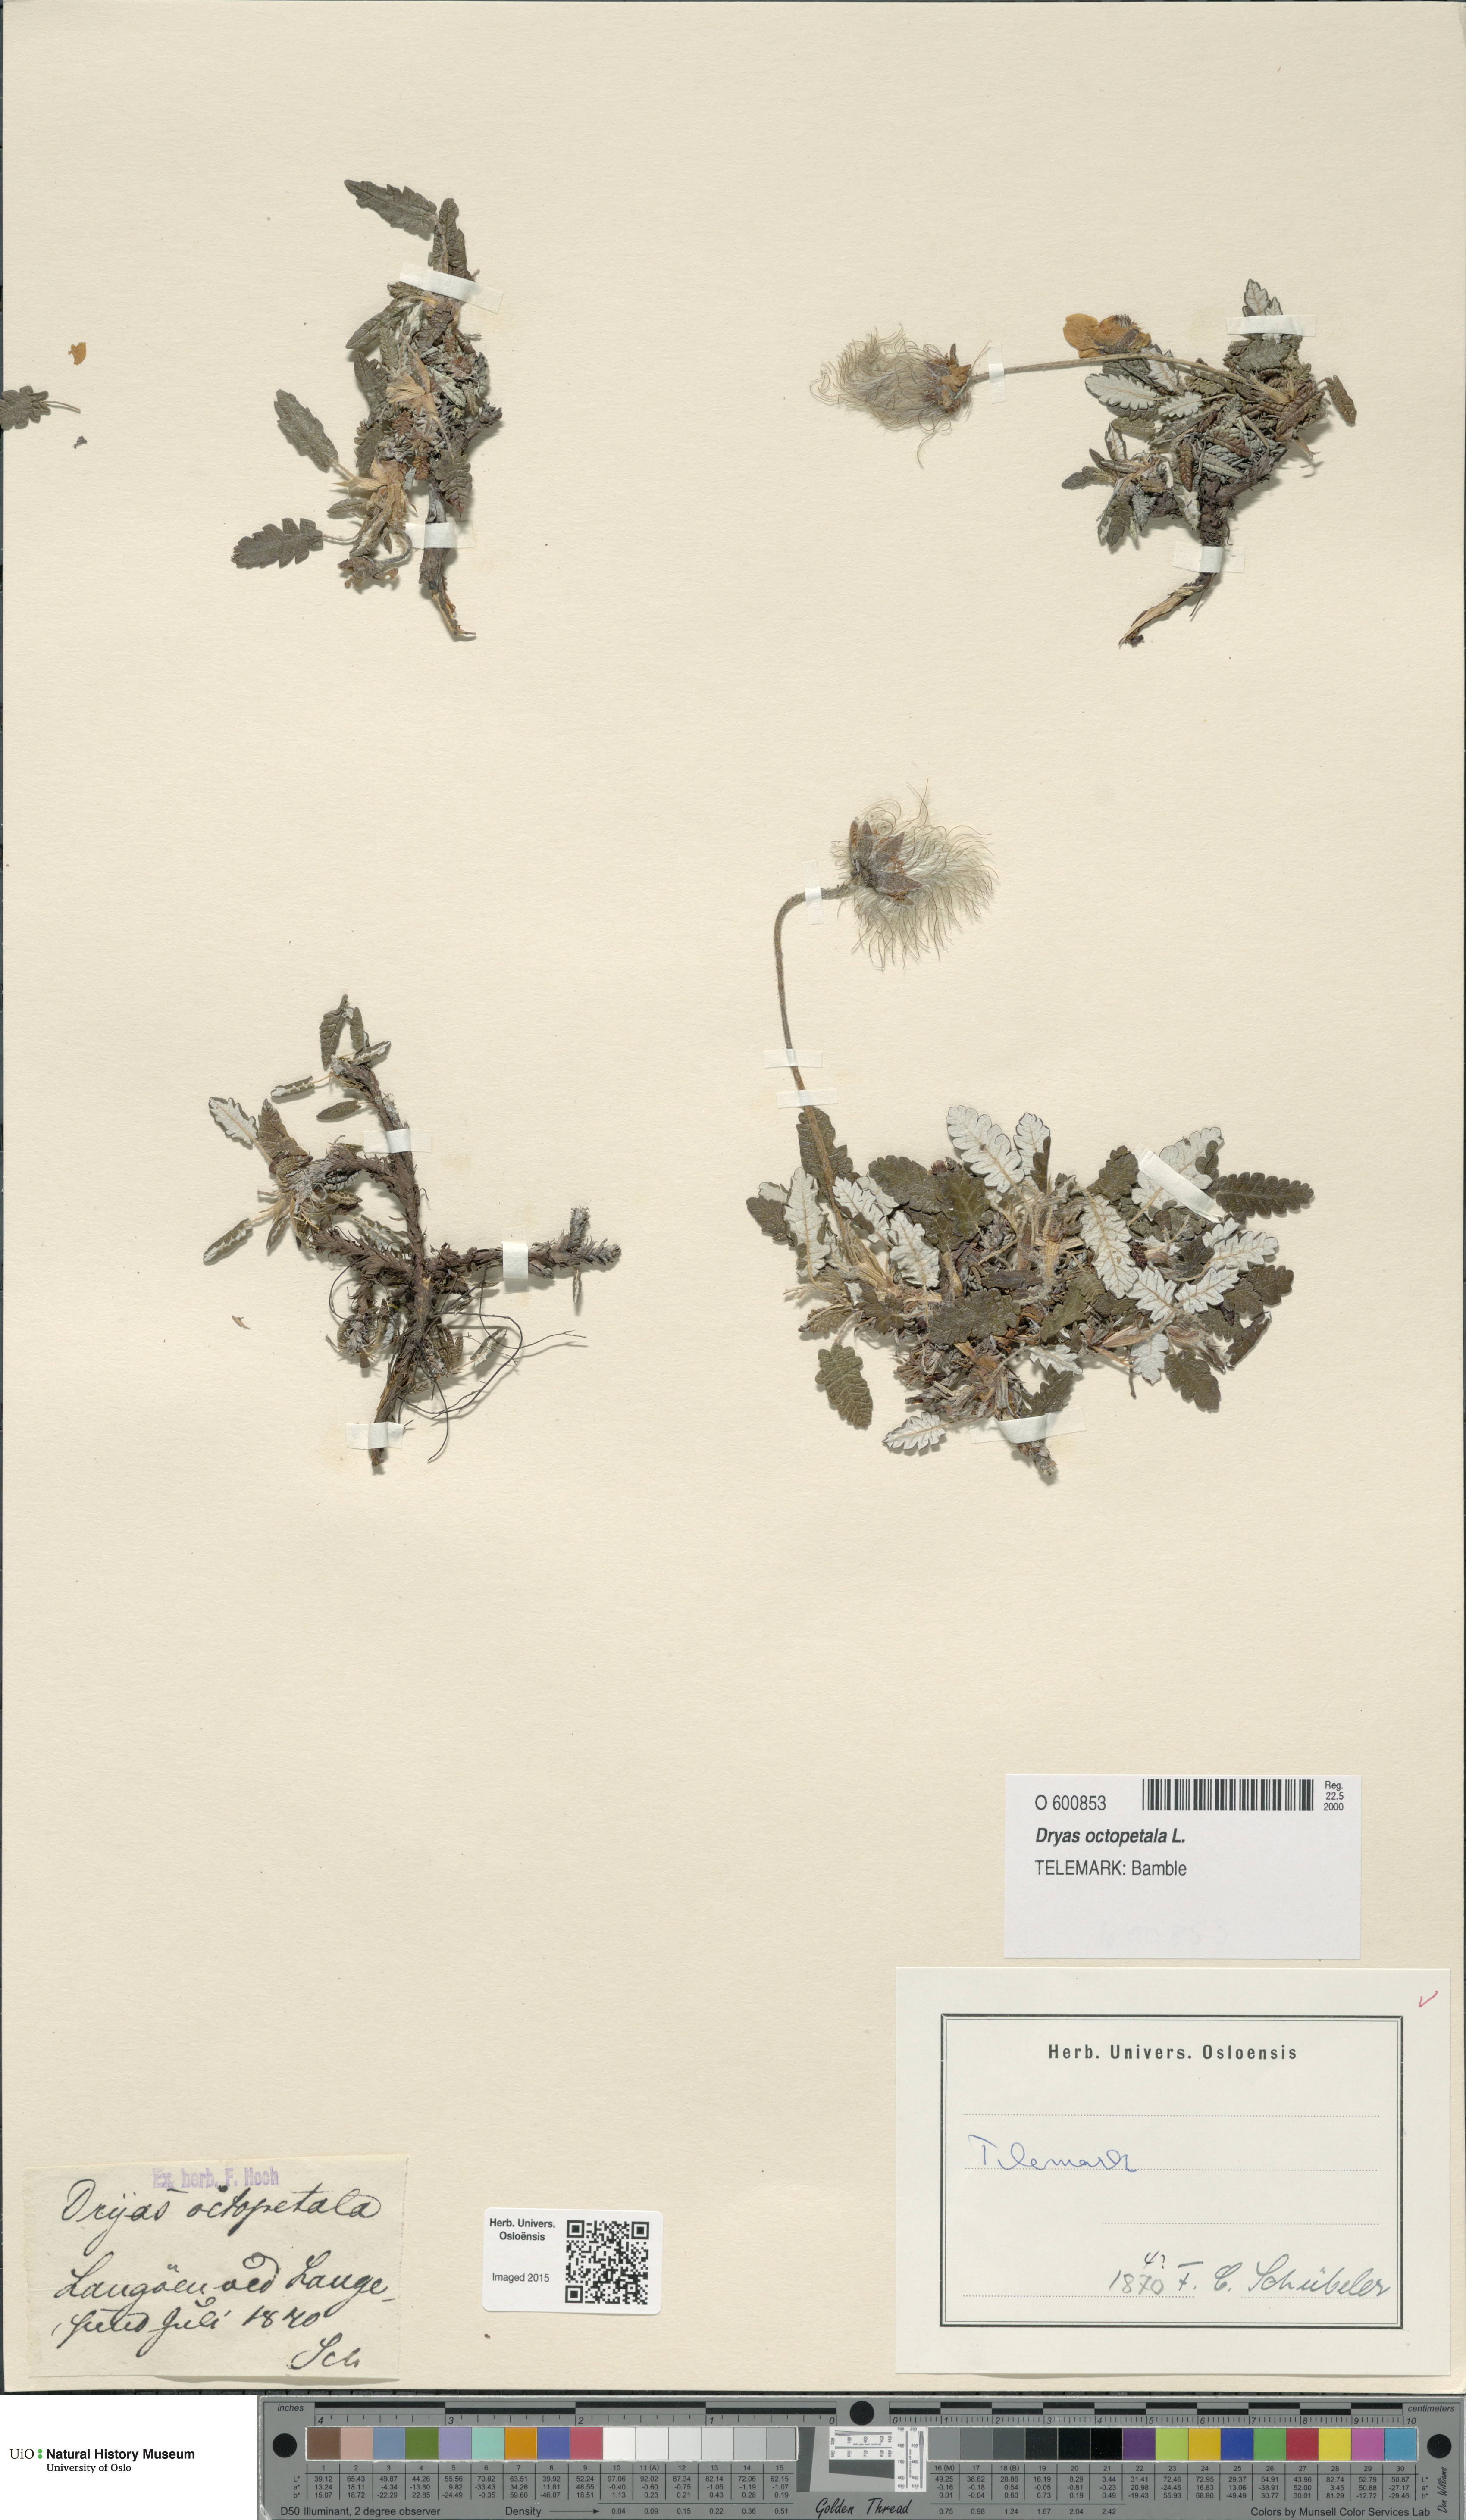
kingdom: Plantae
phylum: Tracheophyta
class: Magnoliopsida
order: Rosales
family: Rosaceae
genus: Dryas
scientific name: Dryas octopetala
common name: Eight-petal mountain-avens
